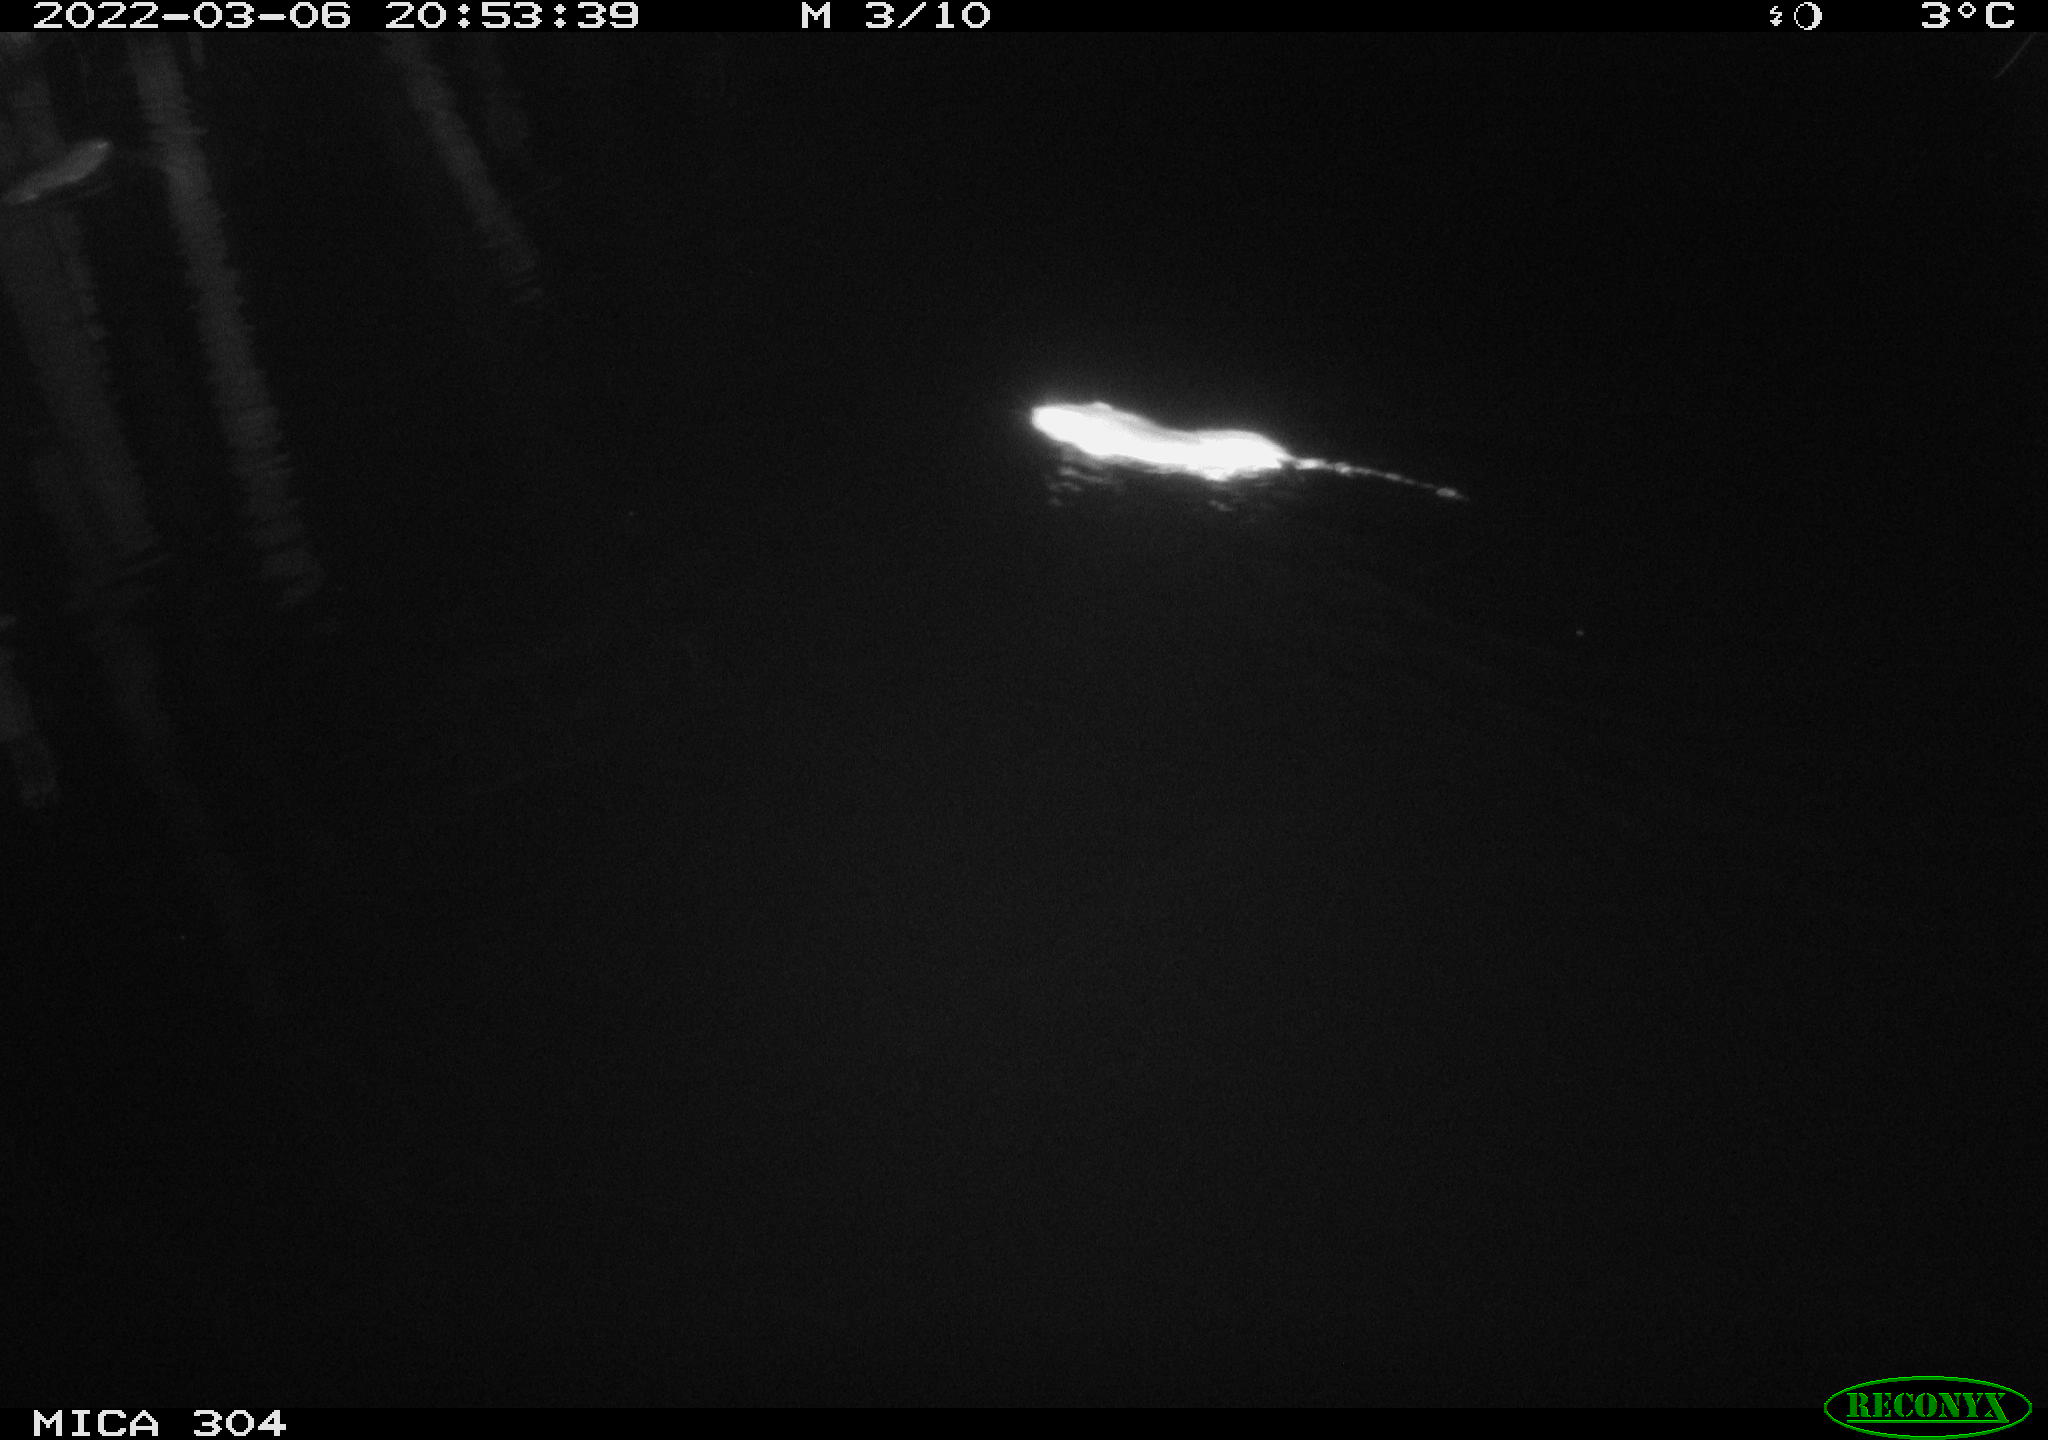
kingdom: Animalia
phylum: Chordata
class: Mammalia
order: Rodentia
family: Muridae
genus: Rattus
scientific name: Rattus norvegicus
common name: Brown rat
